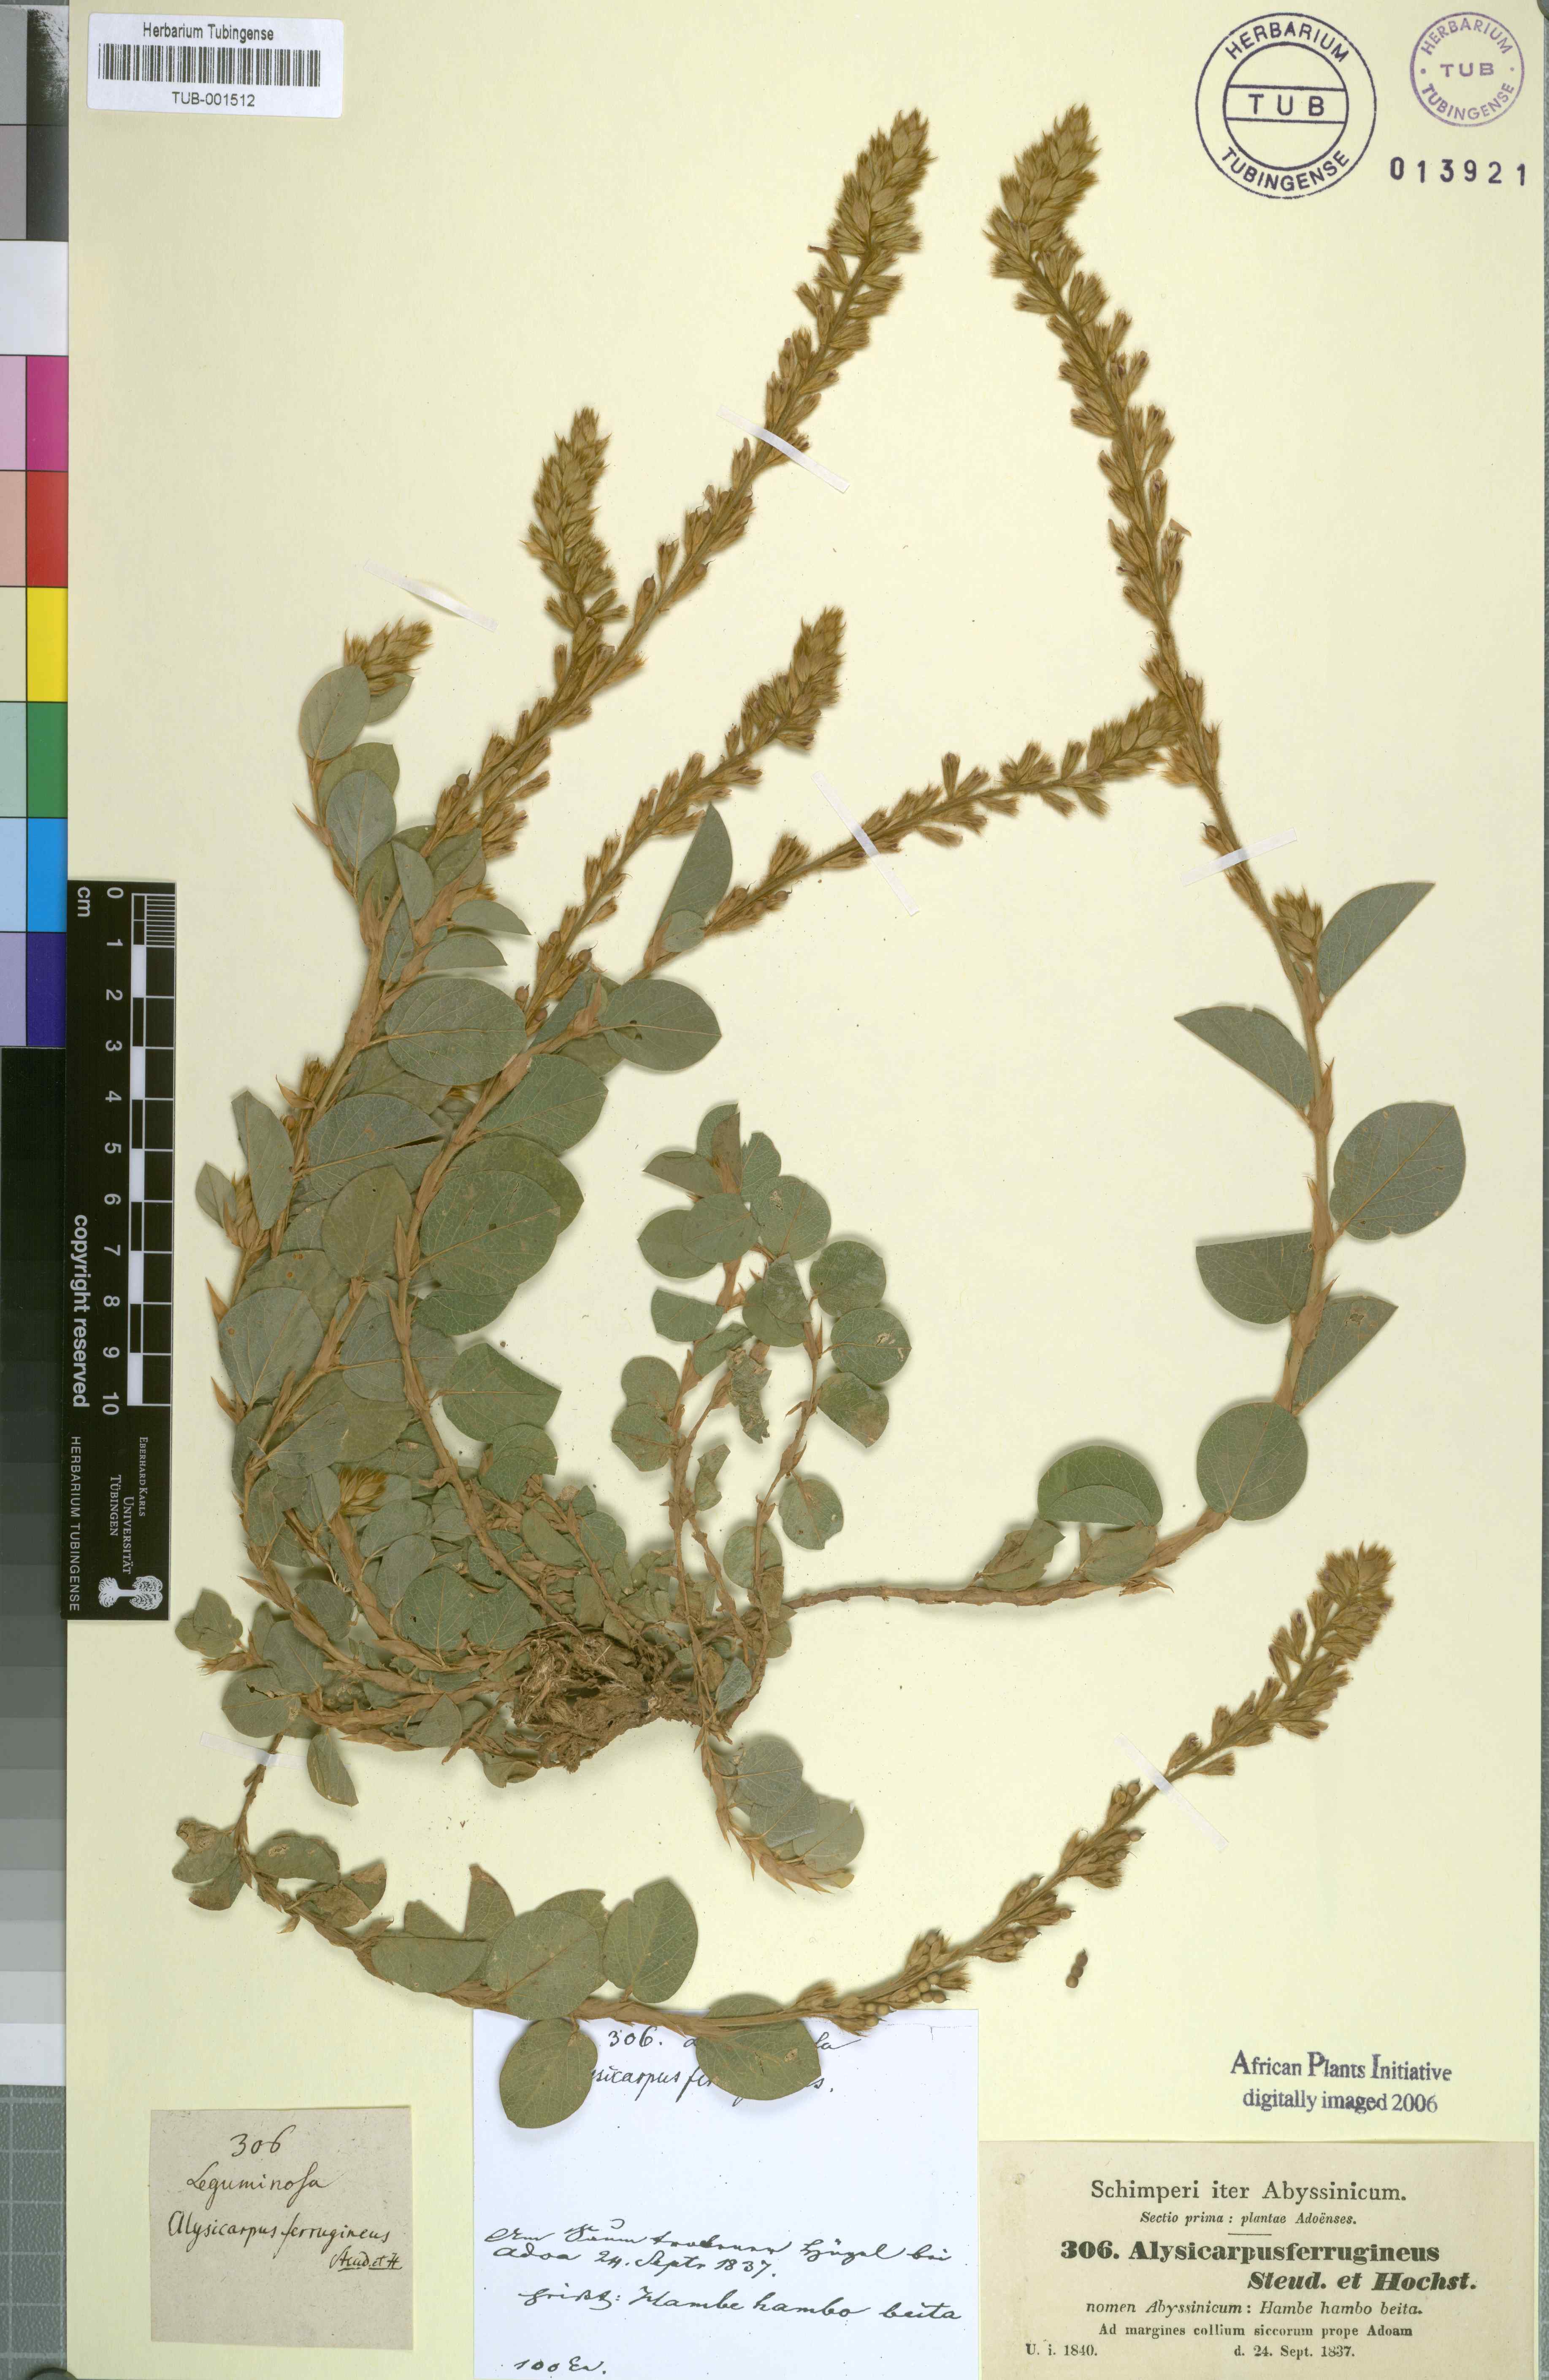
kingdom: Plantae
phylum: Tracheophyta
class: Magnoliopsida
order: Fabales
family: Fabaceae
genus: Alysicarpus
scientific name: Alysicarpus ferrugineus
